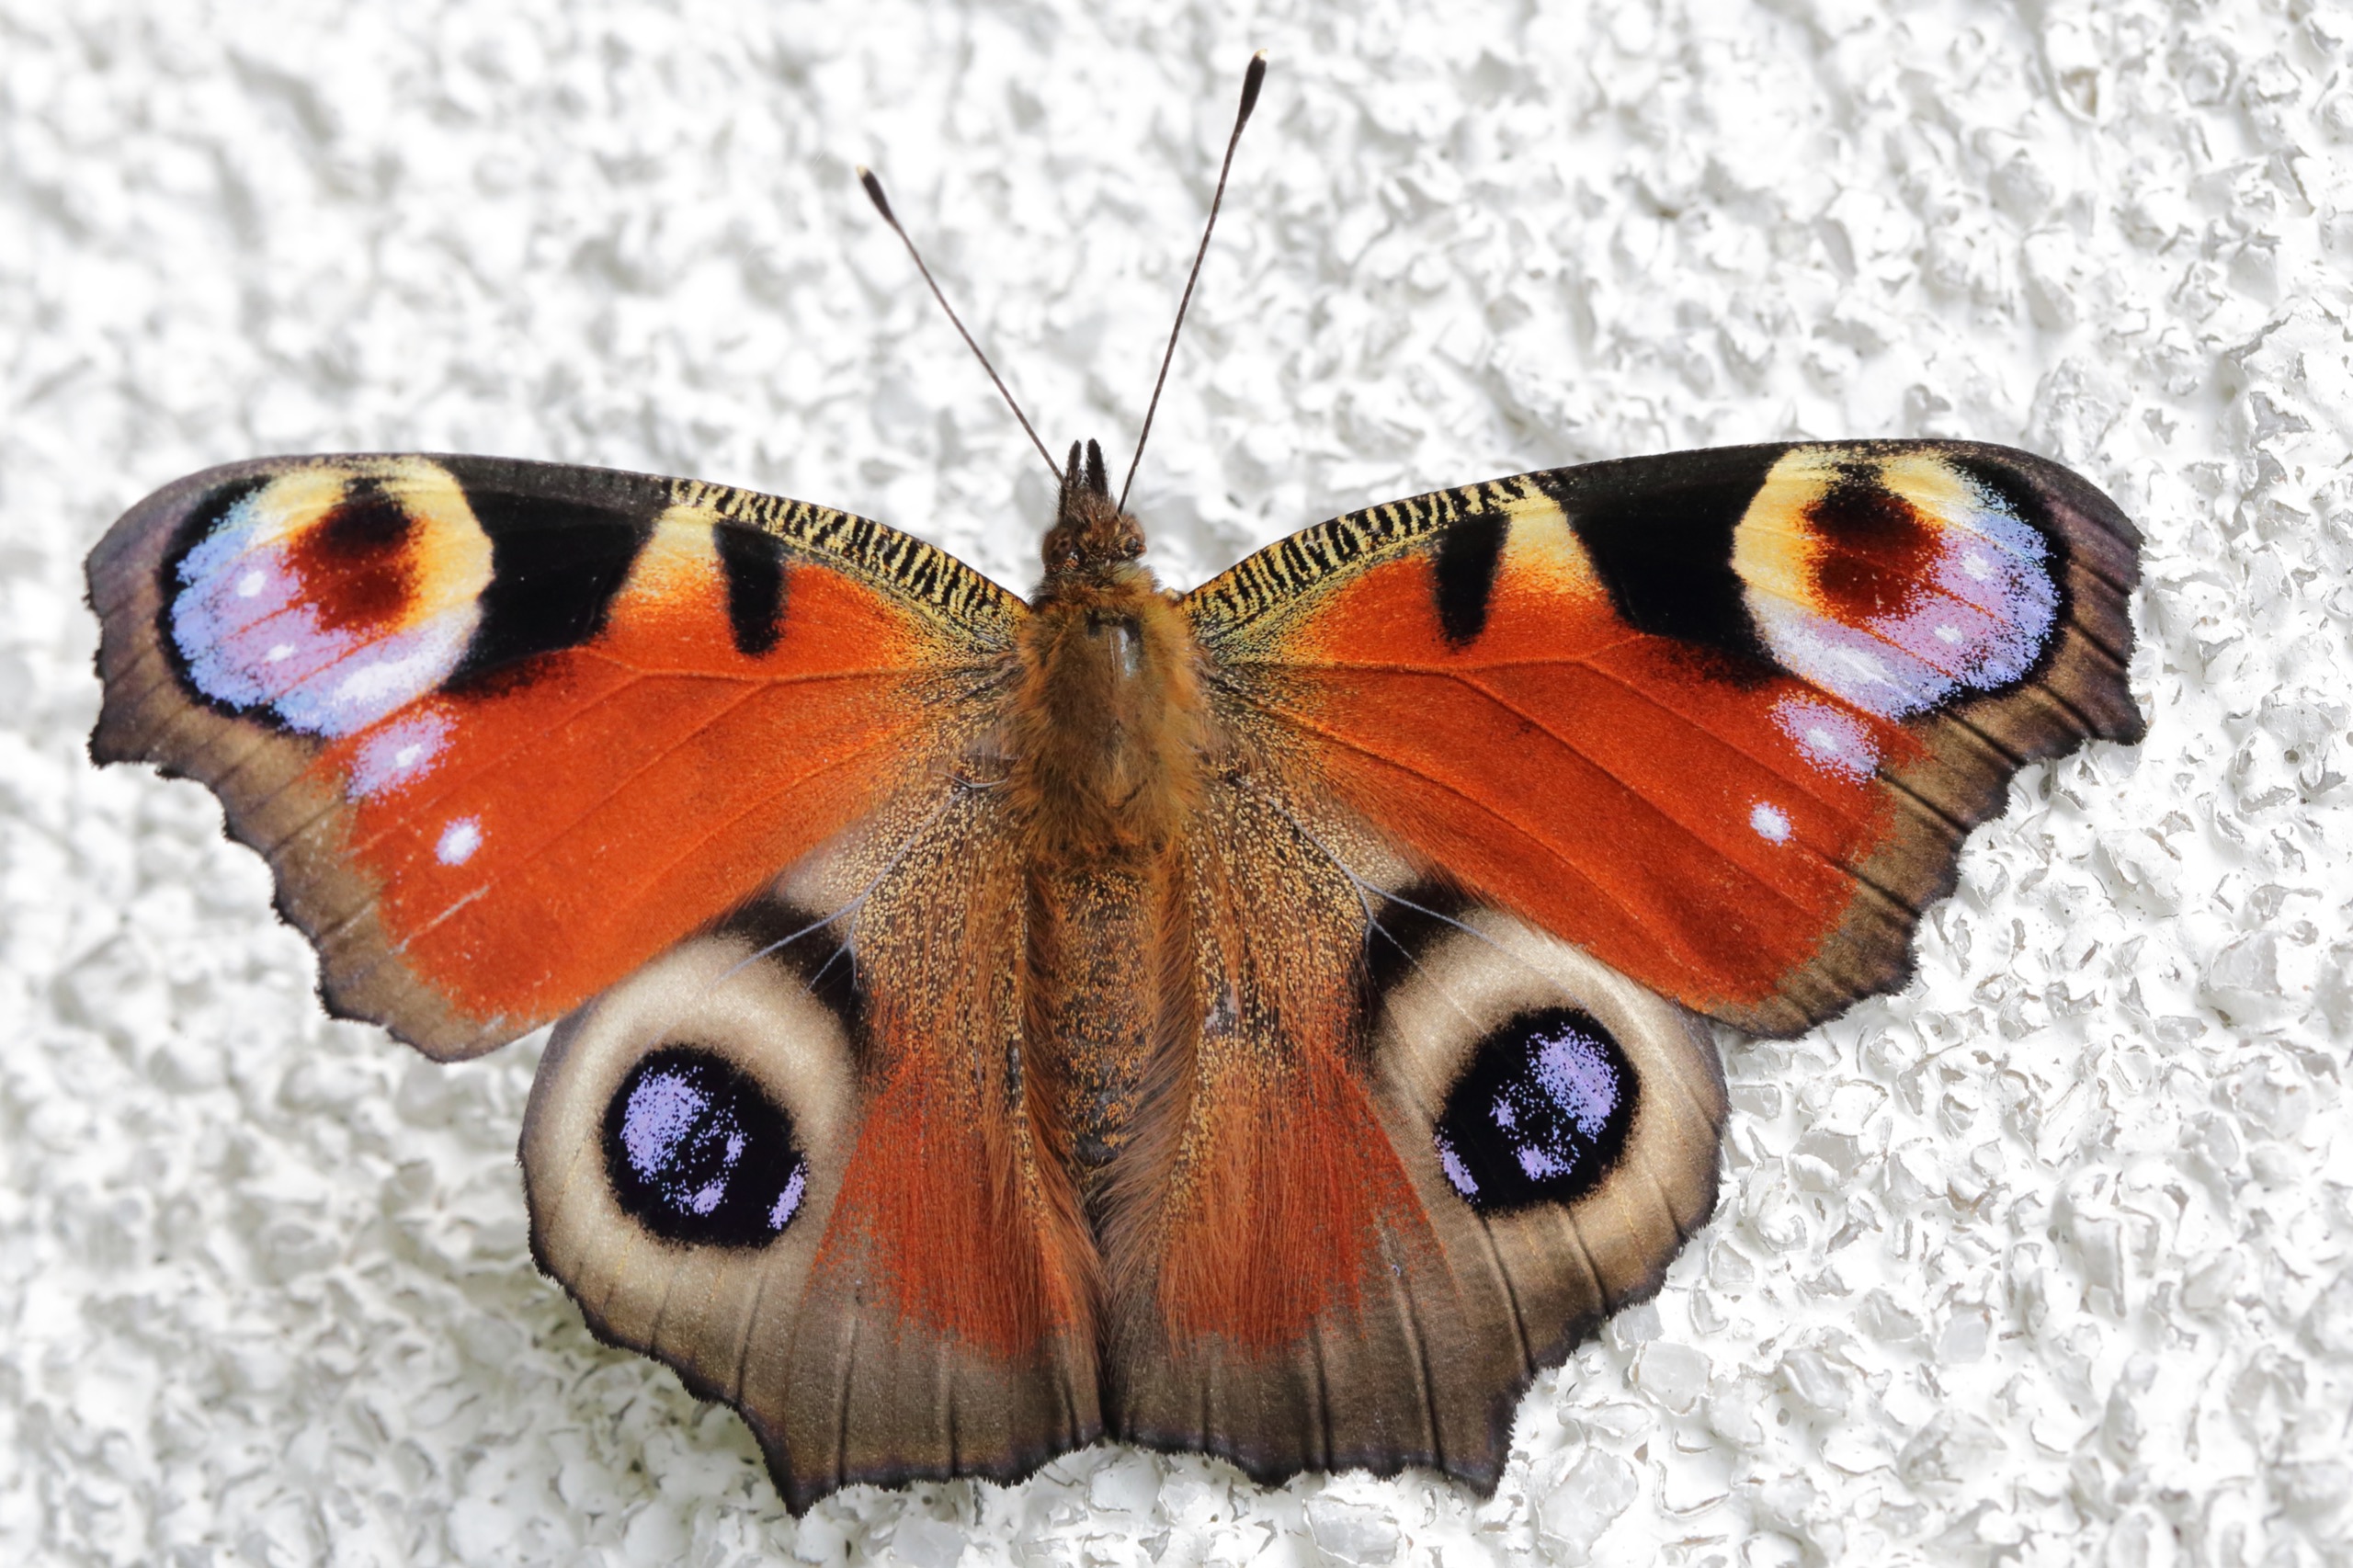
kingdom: Animalia
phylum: Arthropoda
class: Insecta
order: Lepidoptera
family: Nymphalidae
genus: Aglais
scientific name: Aglais io
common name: Dagpåfugleøje
